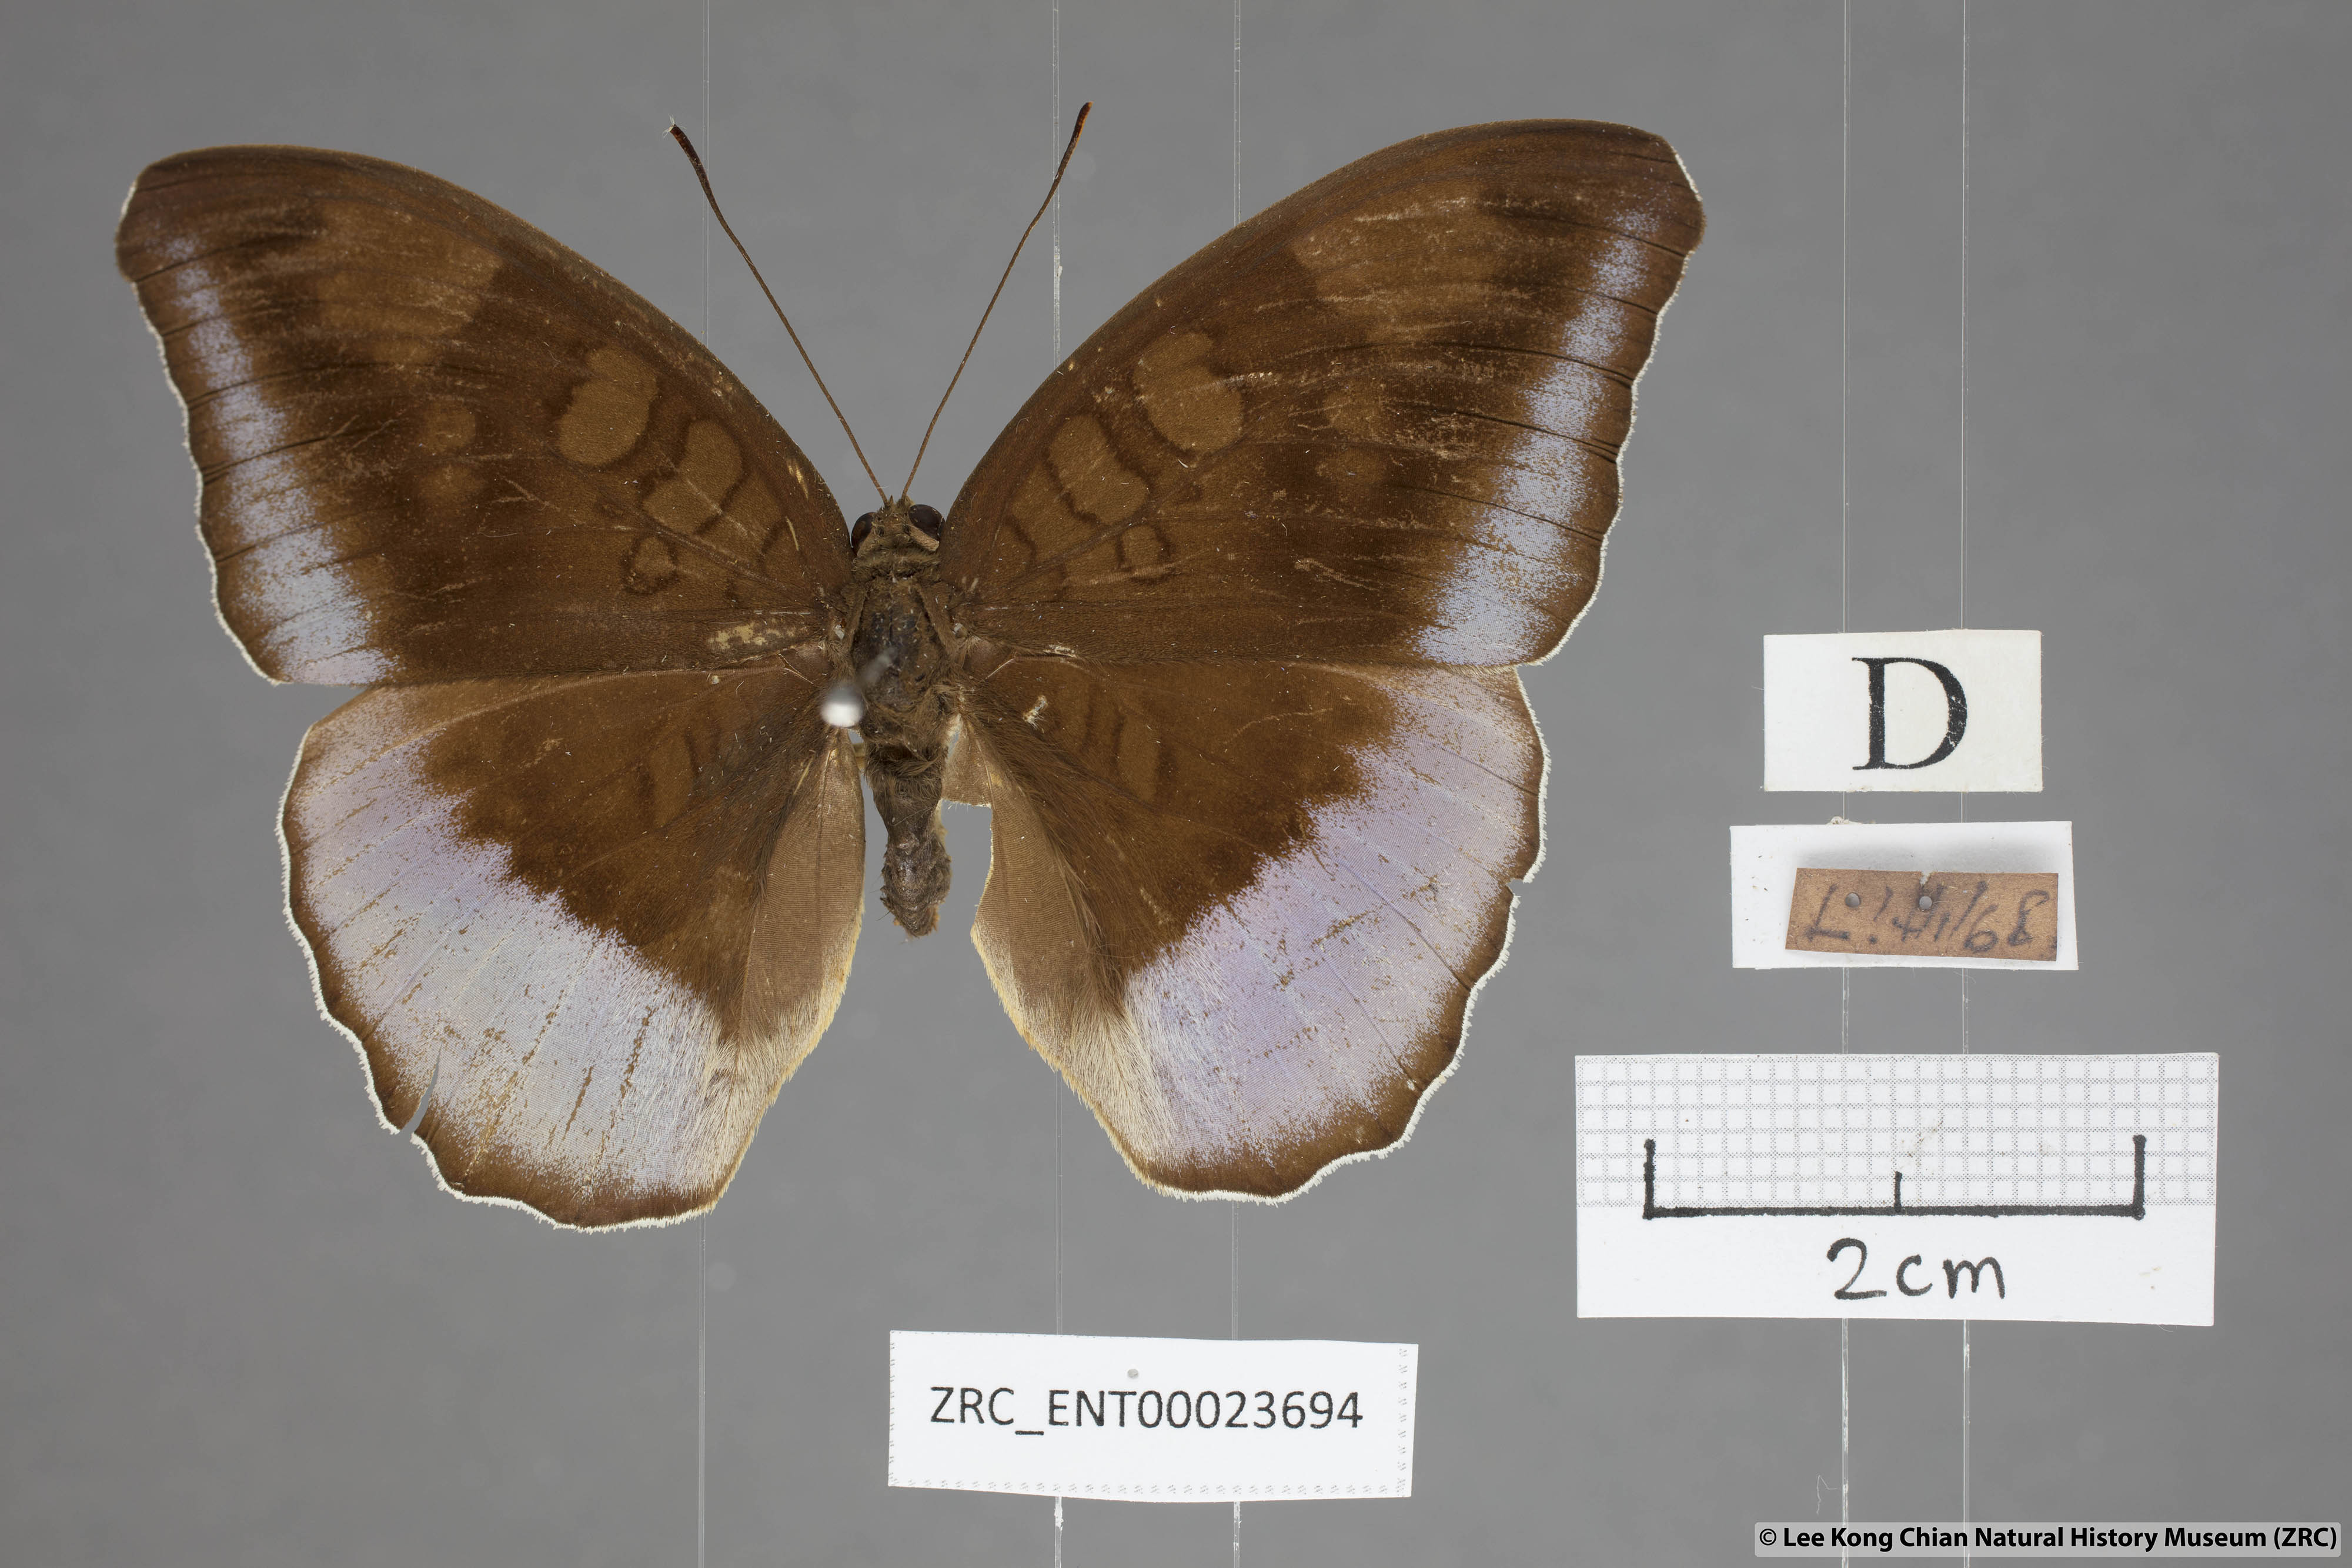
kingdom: Animalia
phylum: Arthropoda
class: Insecta
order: Lepidoptera
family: Nymphalidae
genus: Tanaecia
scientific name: Tanaecia flora
